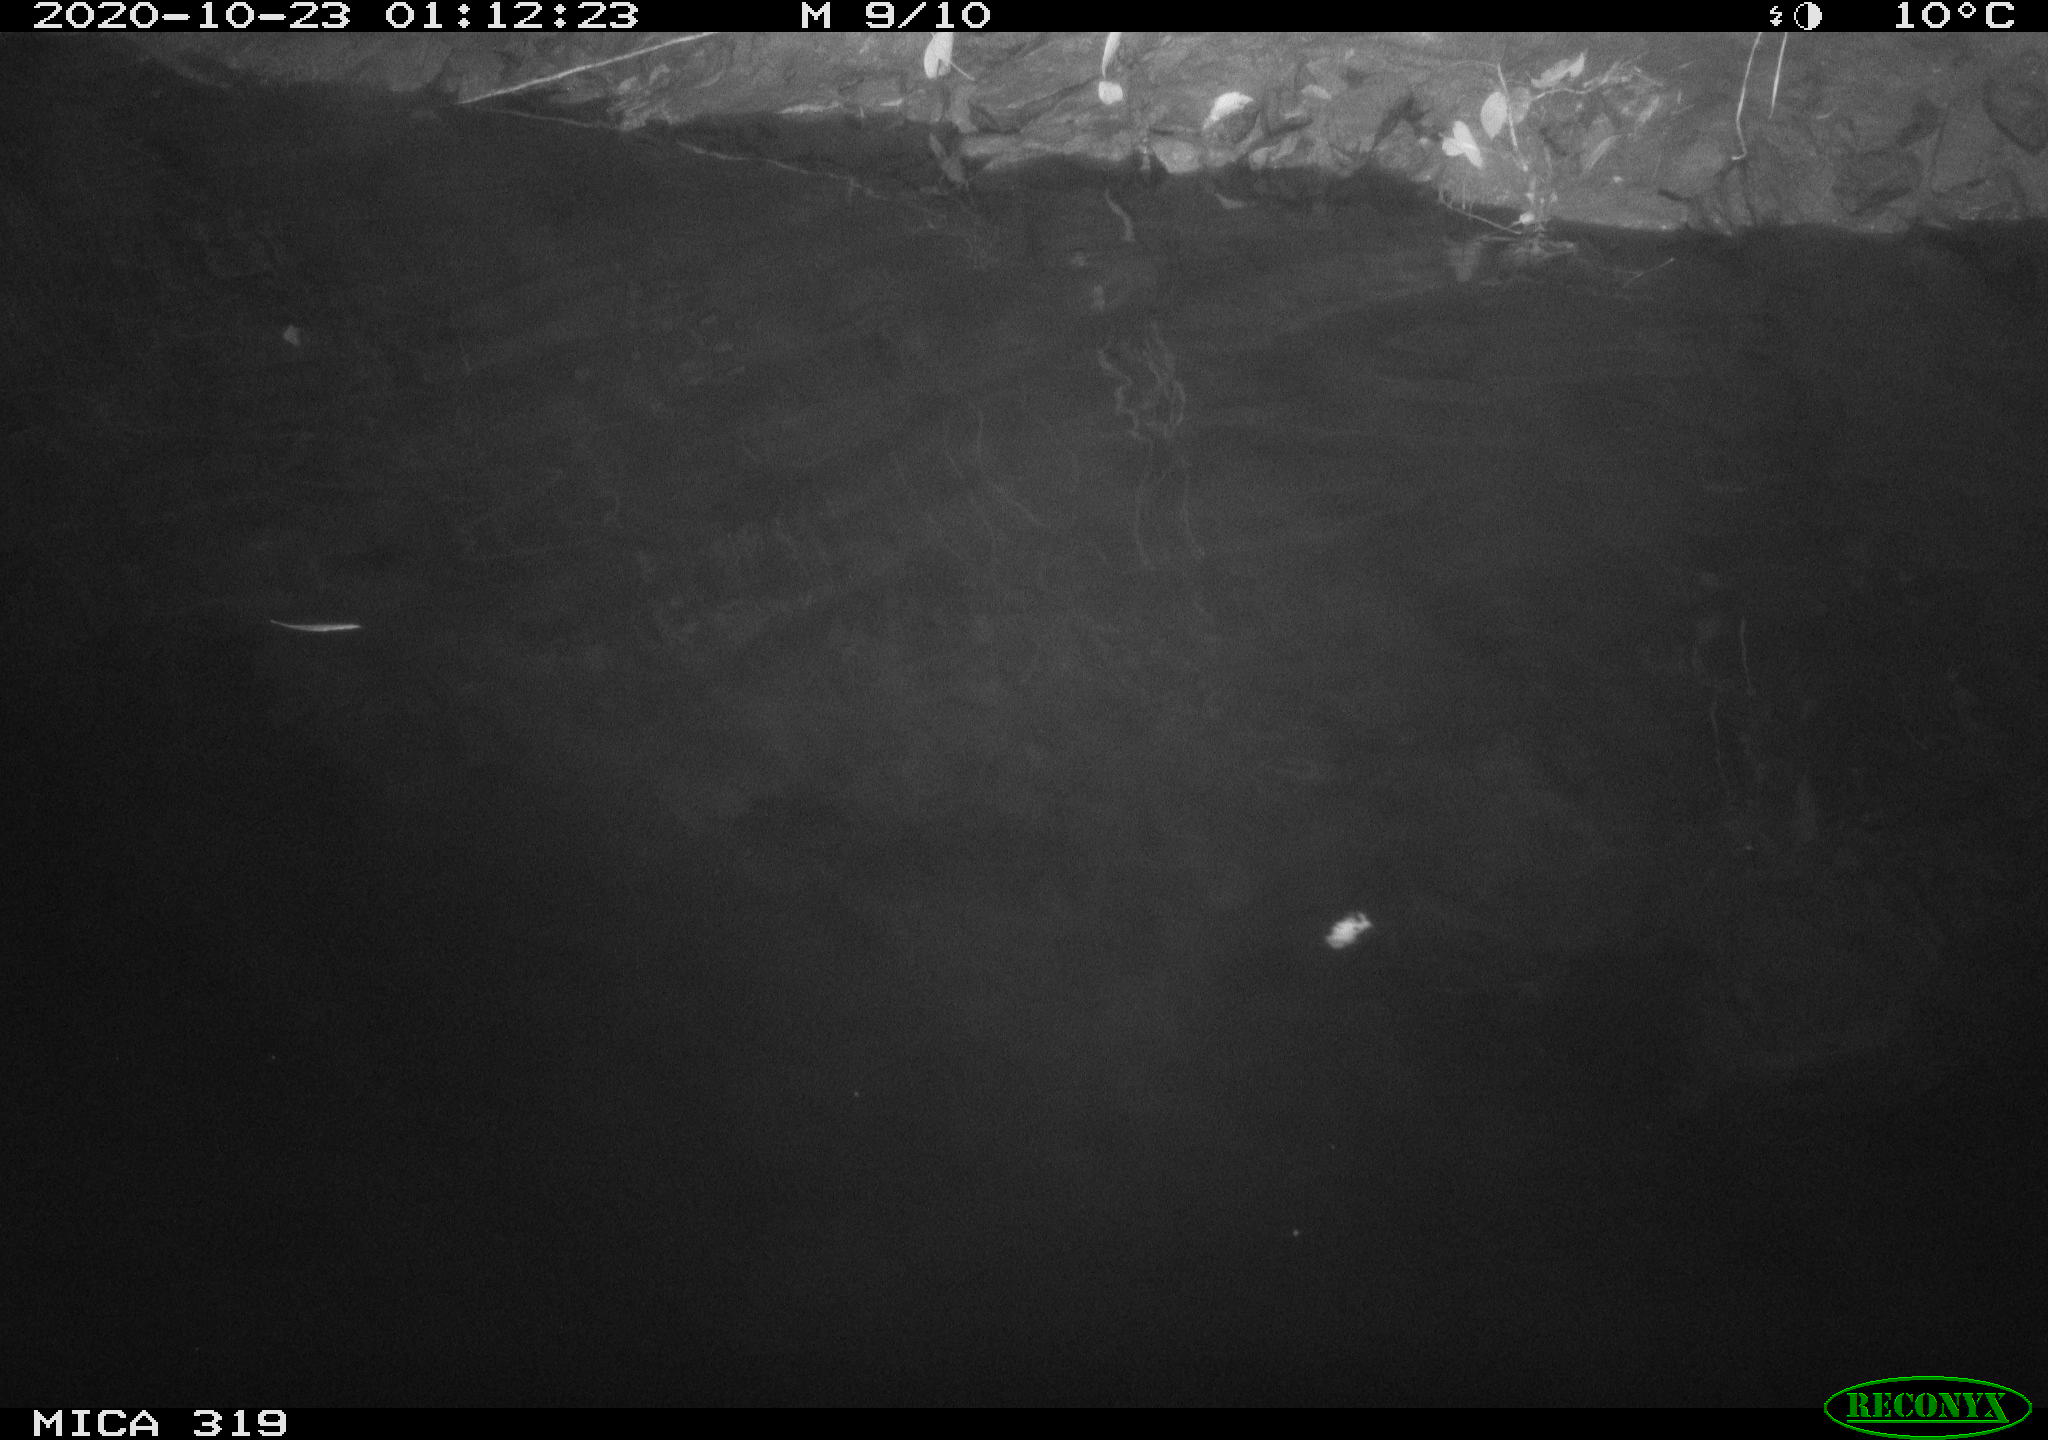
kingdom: Animalia
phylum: Chordata
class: Aves
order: Anseriformes
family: Anatidae
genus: Anas
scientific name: Anas platyrhynchos
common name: Mallard
